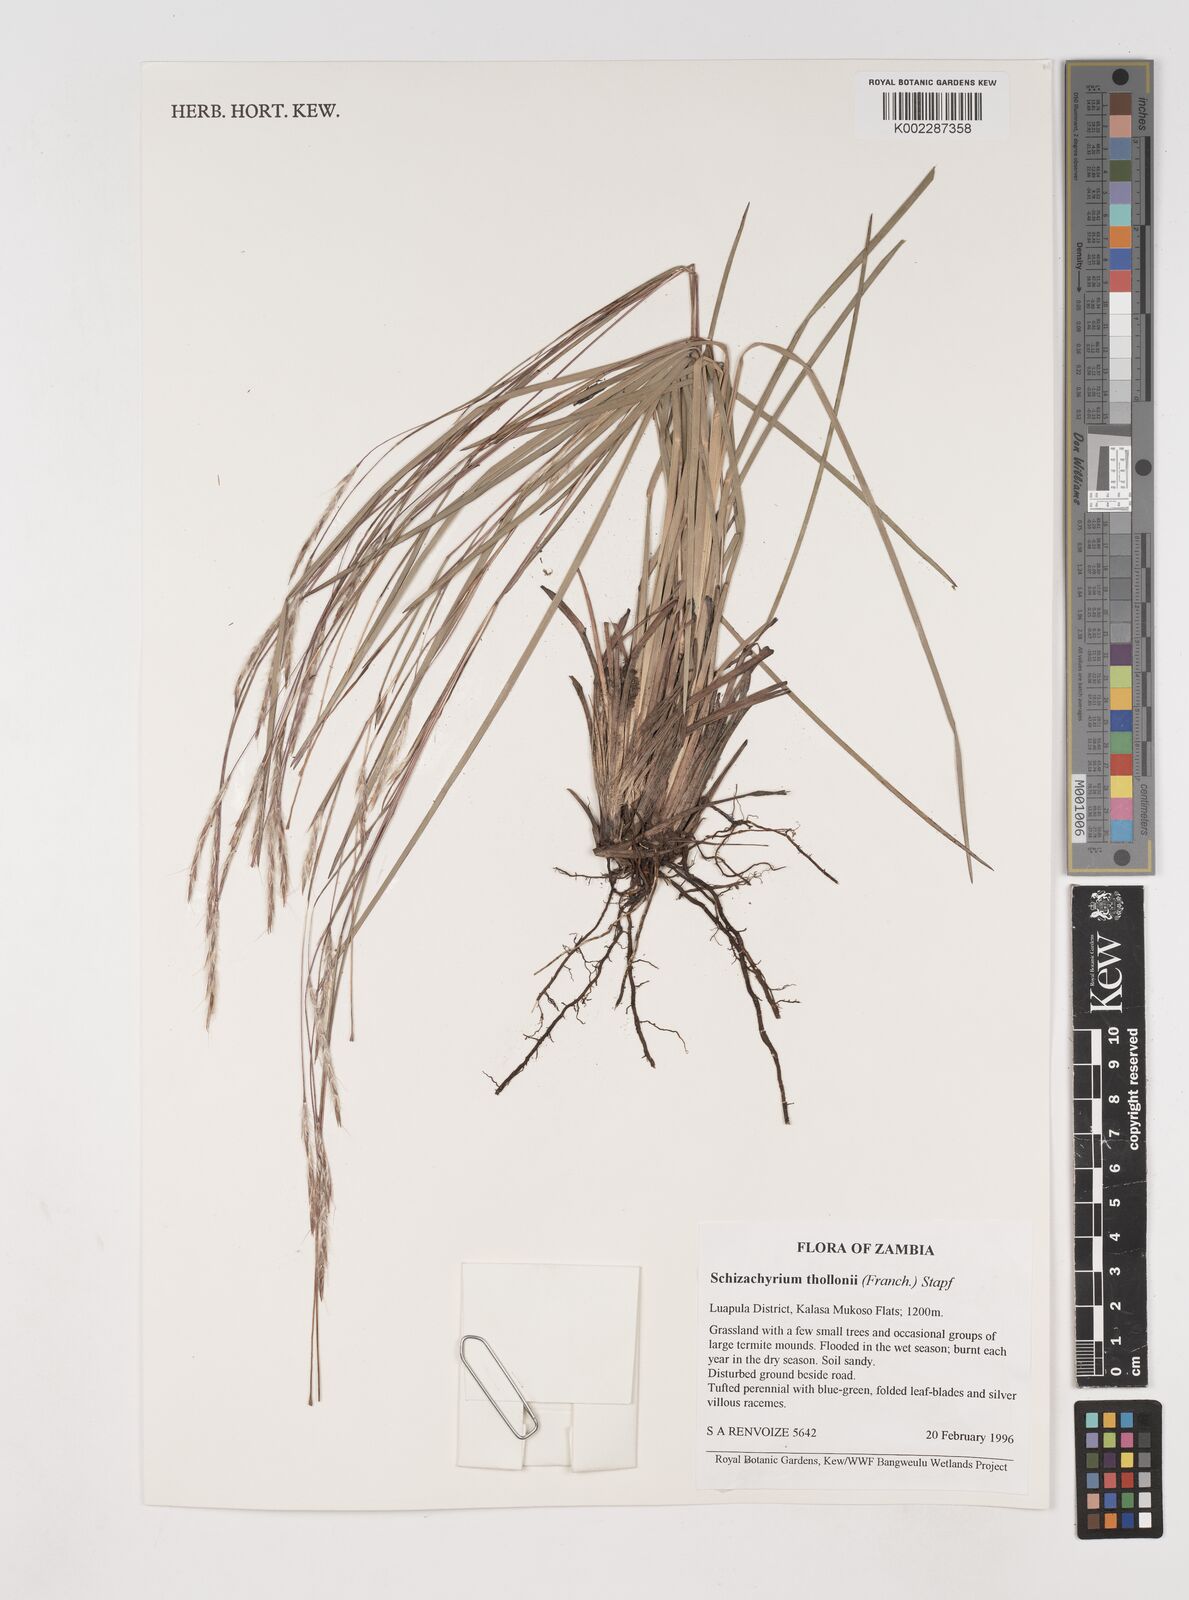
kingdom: Plantae
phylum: Tracheophyta
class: Liliopsida
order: Poales
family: Poaceae
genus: Schizachyrium
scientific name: Schizachyrium thollonii
